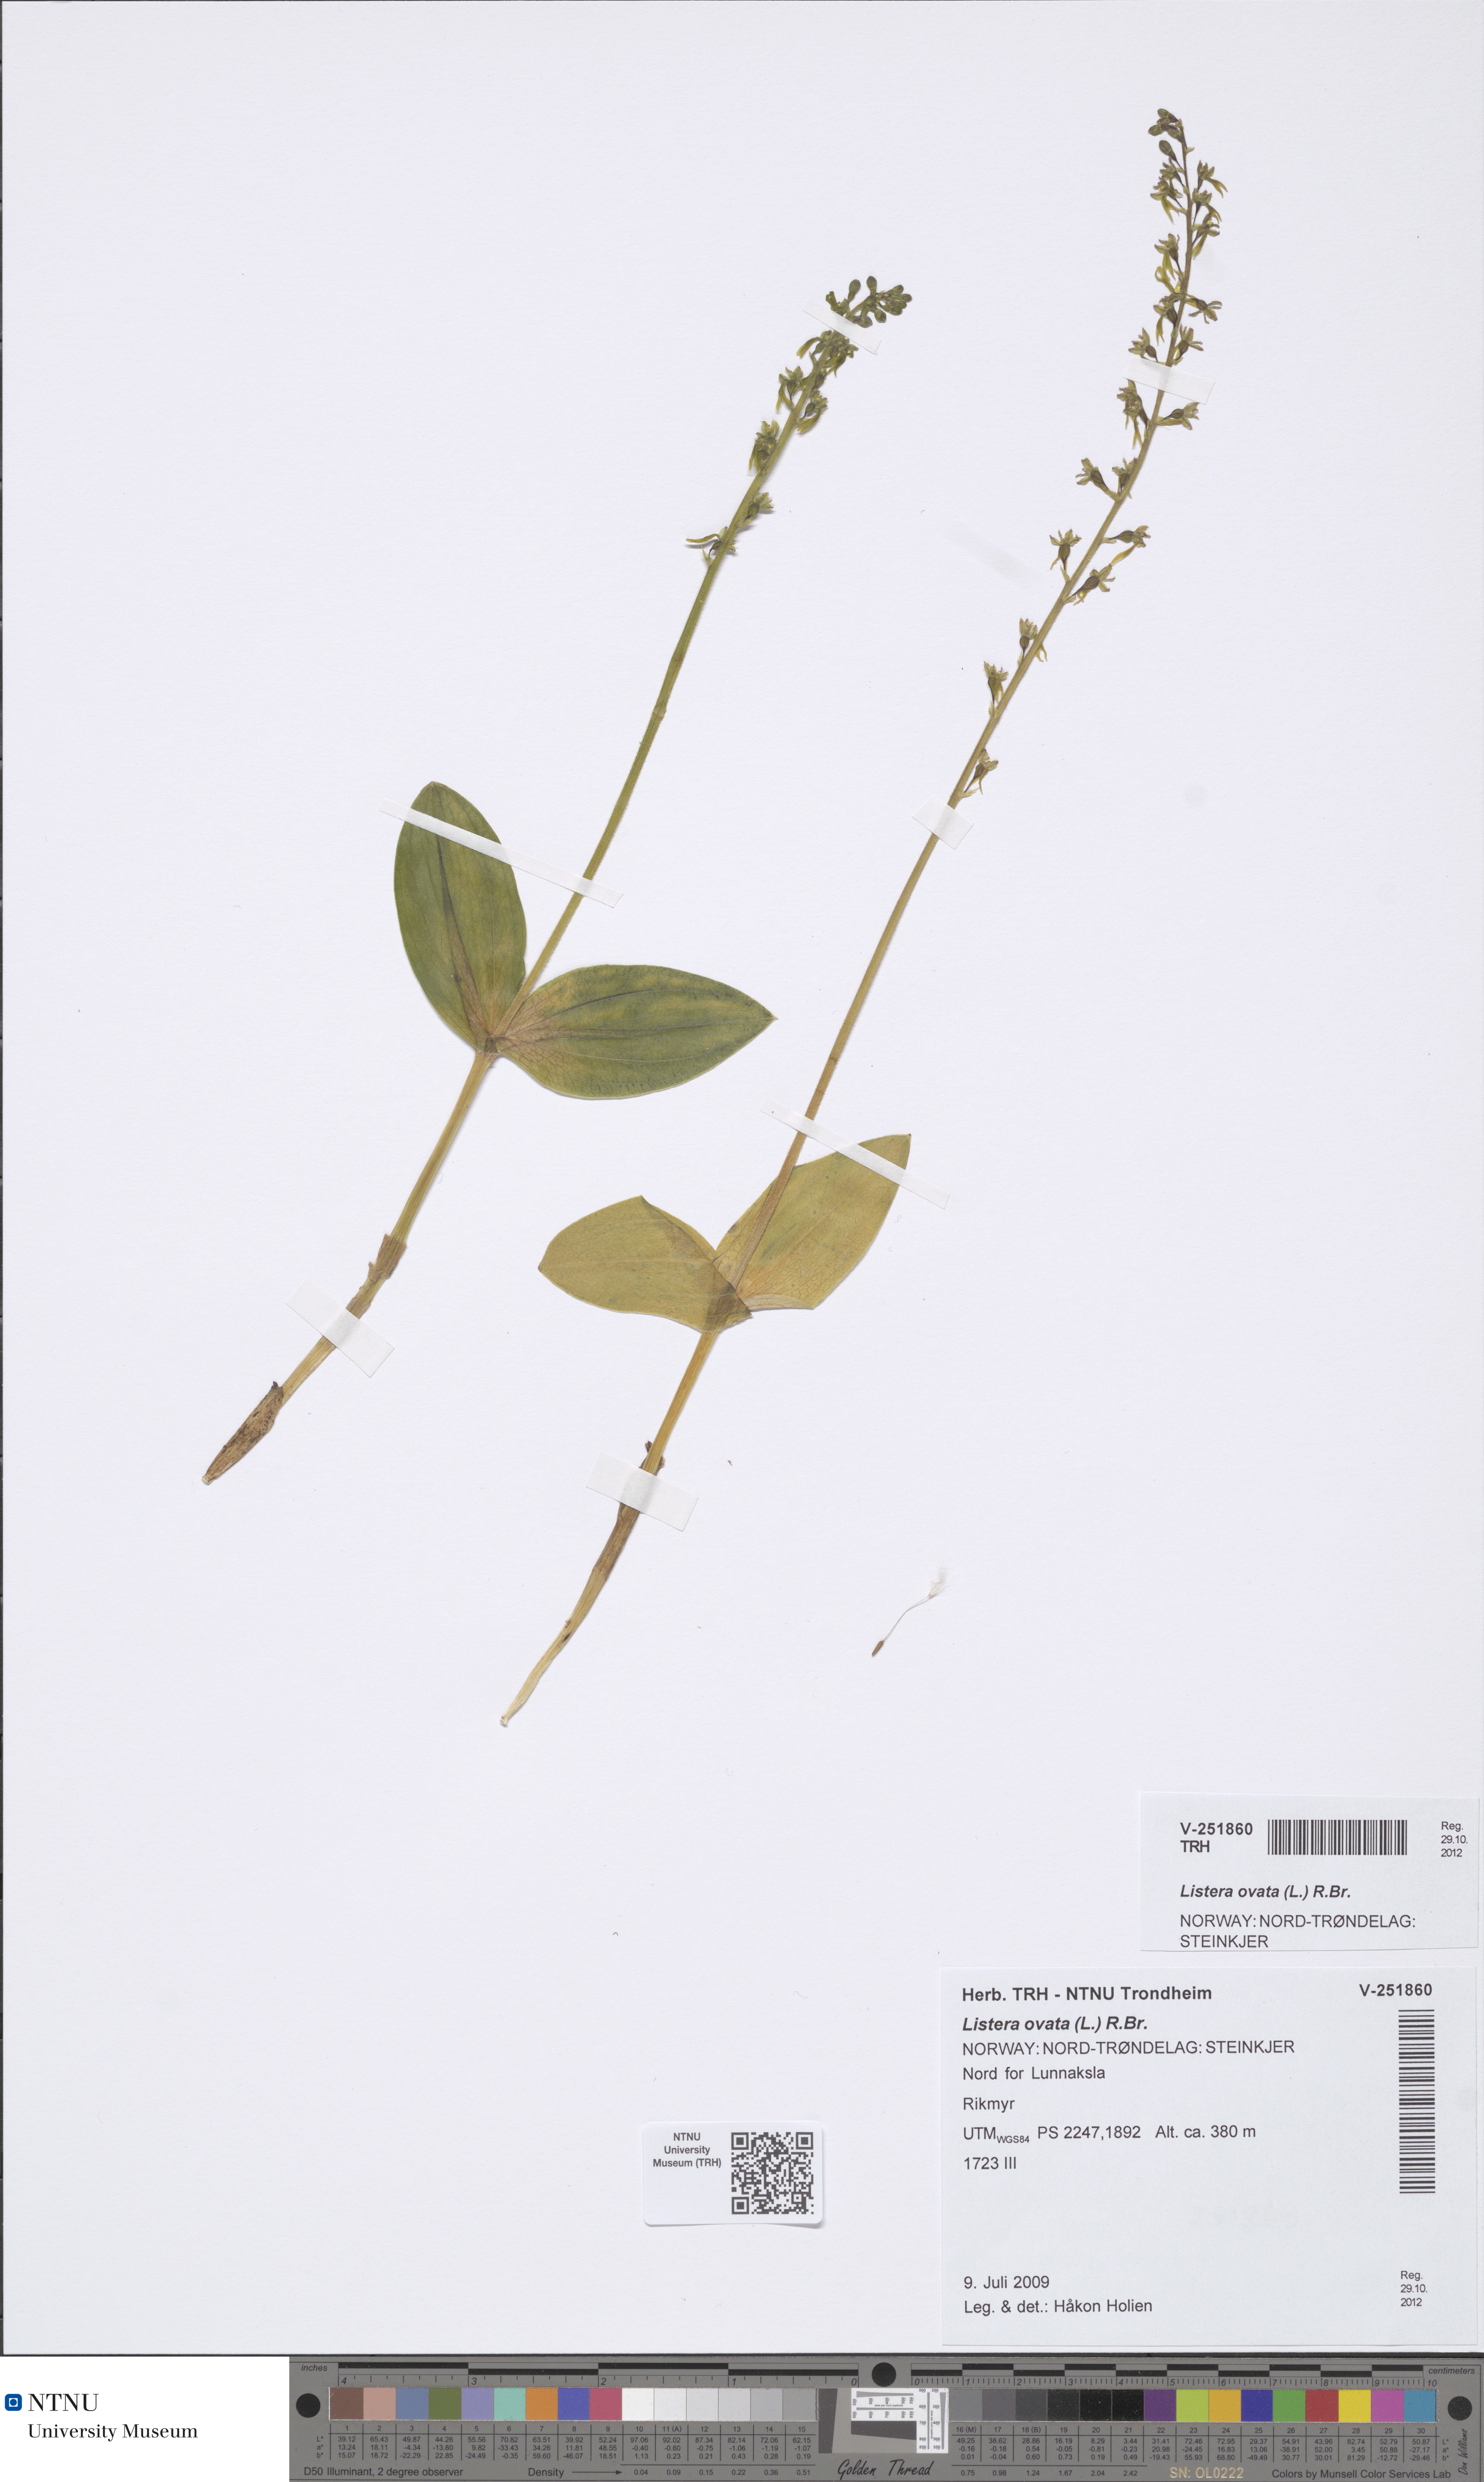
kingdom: Plantae
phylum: Tracheophyta
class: Liliopsida
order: Asparagales
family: Orchidaceae
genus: Neottia
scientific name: Neottia ovata
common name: Common twayblade
